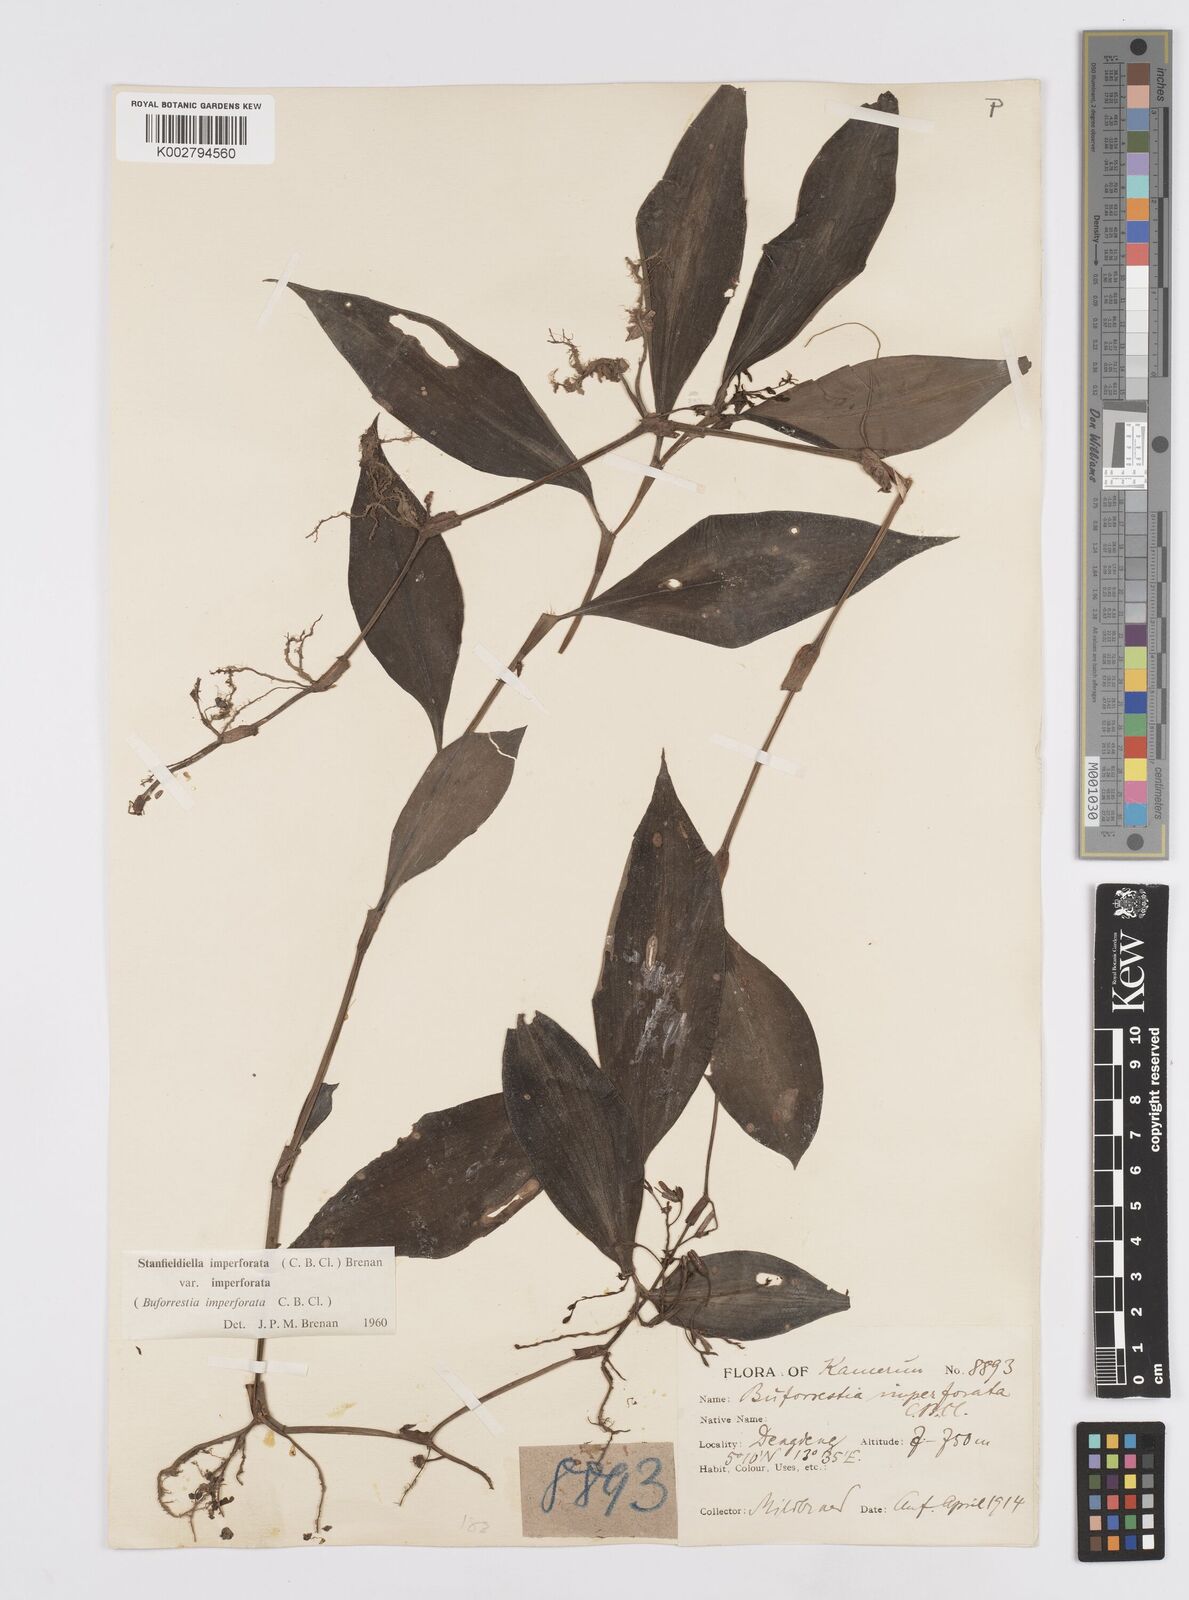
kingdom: Plantae
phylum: Tracheophyta
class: Liliopsida
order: Commelinales
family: Commelinaceae
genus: Stanfieldiella
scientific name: Stanfieldiella imperforata
